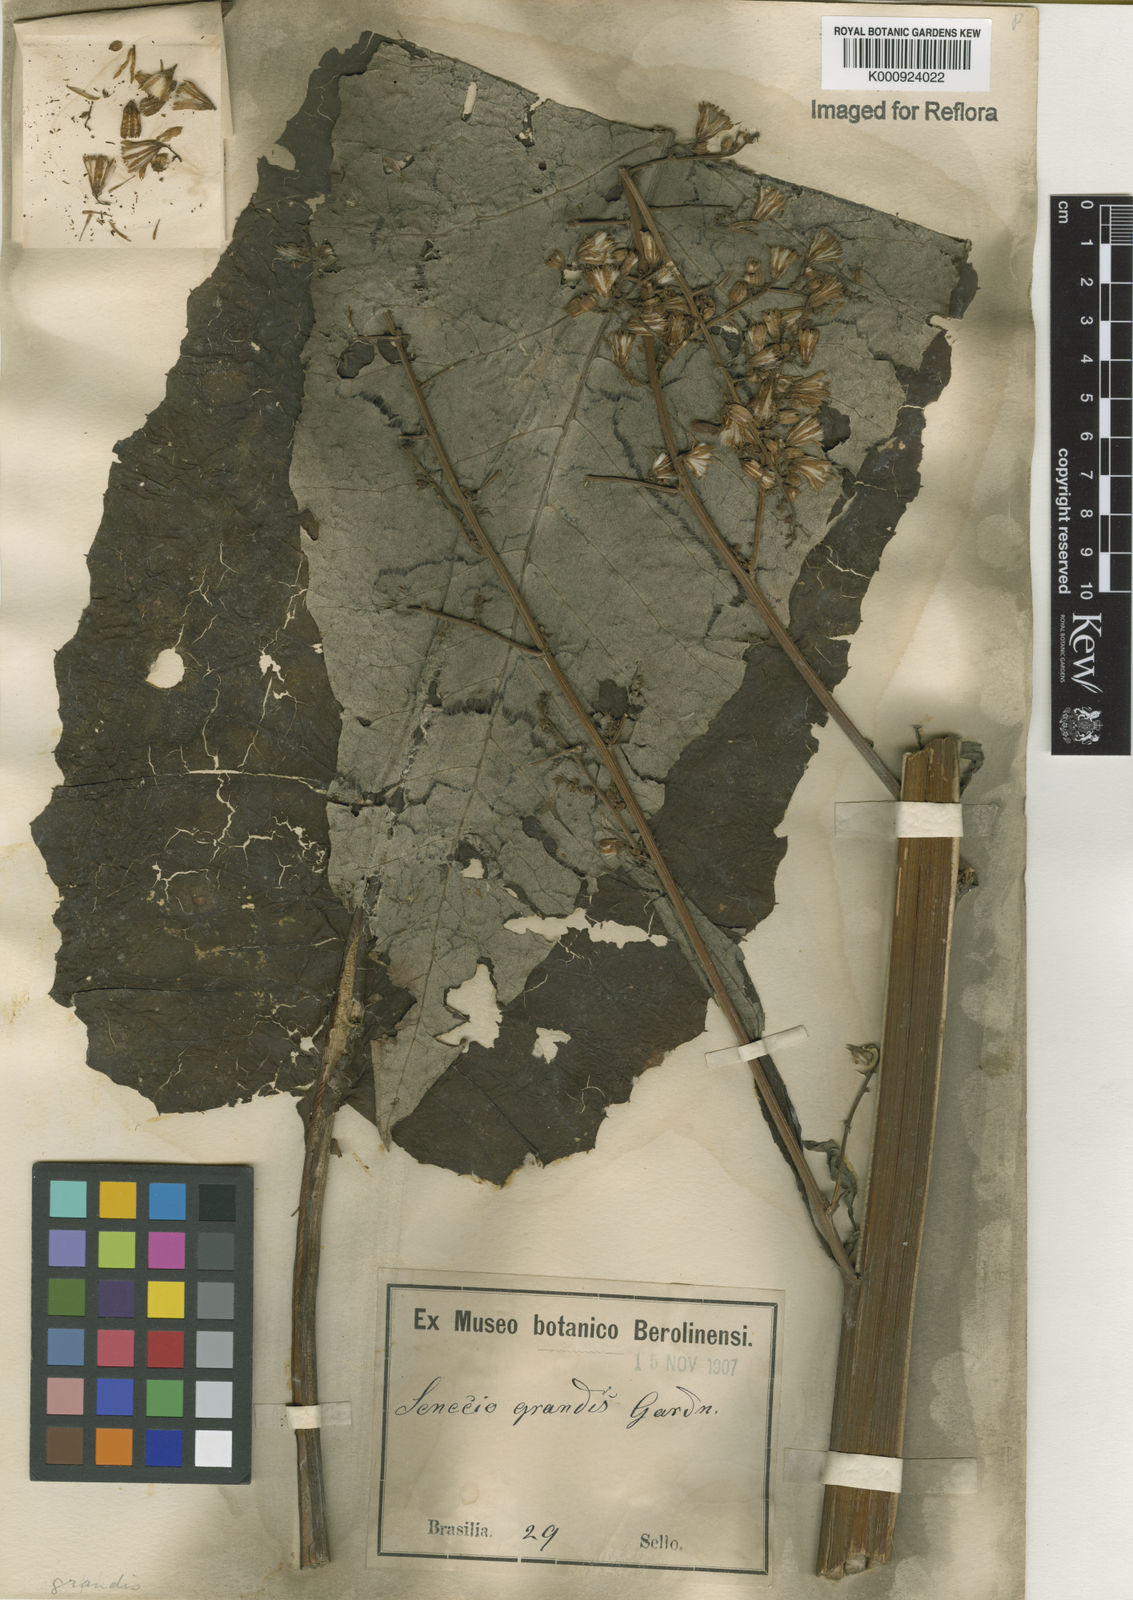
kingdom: Plantae
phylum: Tracheophyta
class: Magnoliopsida
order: Asterales
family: Asteraceae
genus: Senecio
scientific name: Senecio grandis
